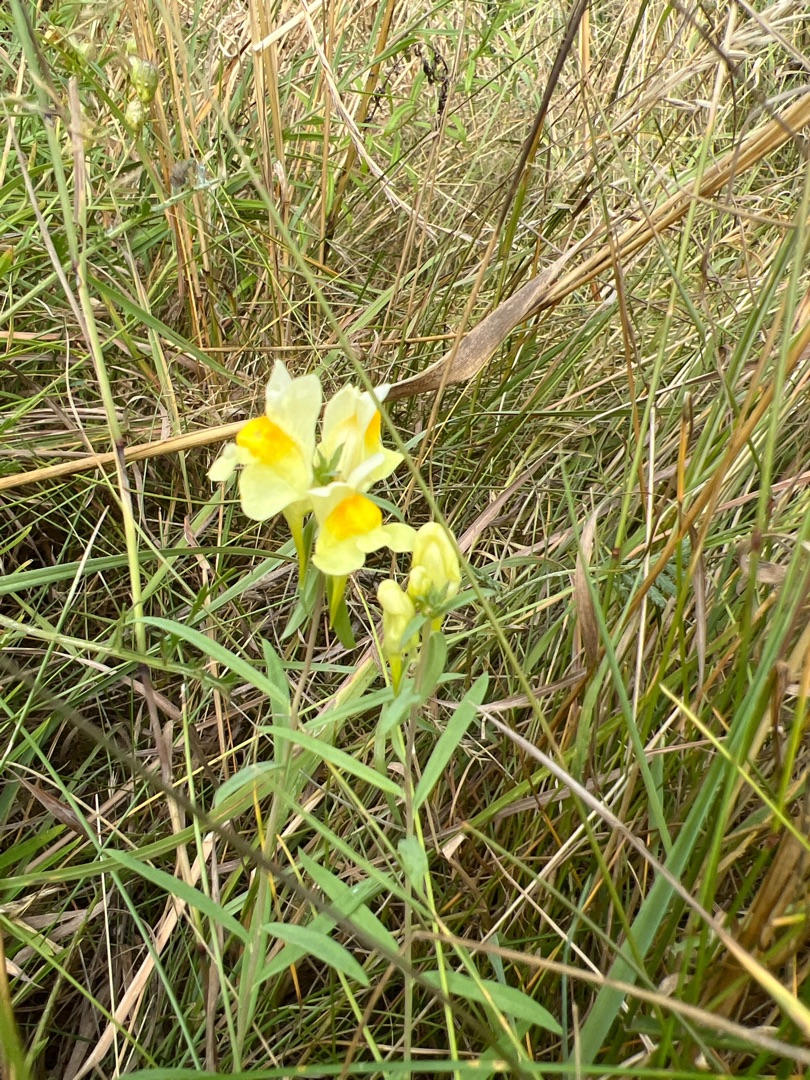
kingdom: Plantae
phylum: Tracheophyta
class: Magnoliopsida
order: Lamiales
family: Plantaginaceae
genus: Linaria
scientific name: Linaria vulgaris
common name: Almindelig torskemund
